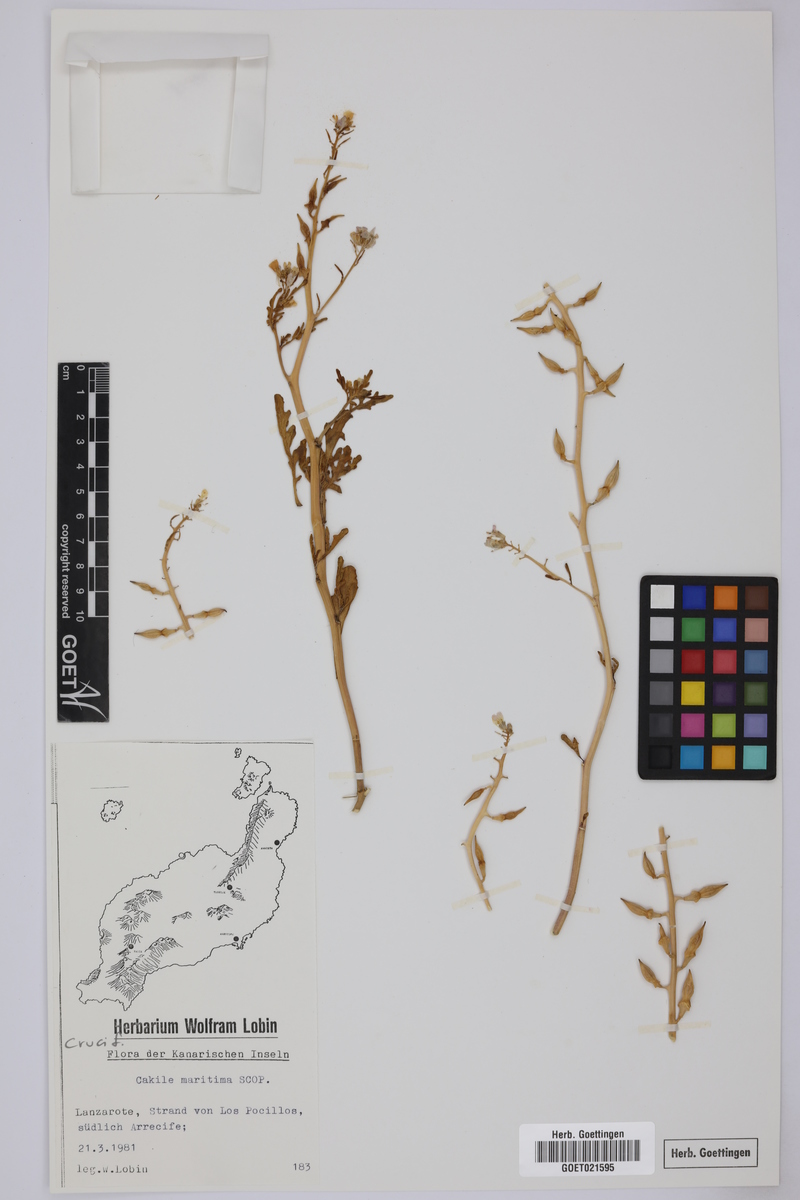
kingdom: Plantae
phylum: Tracheophyta
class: Magnoliopsida
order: Brassicales
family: Brassicaceae
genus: Cakile
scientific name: Cakile maritima
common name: Sea rocket
